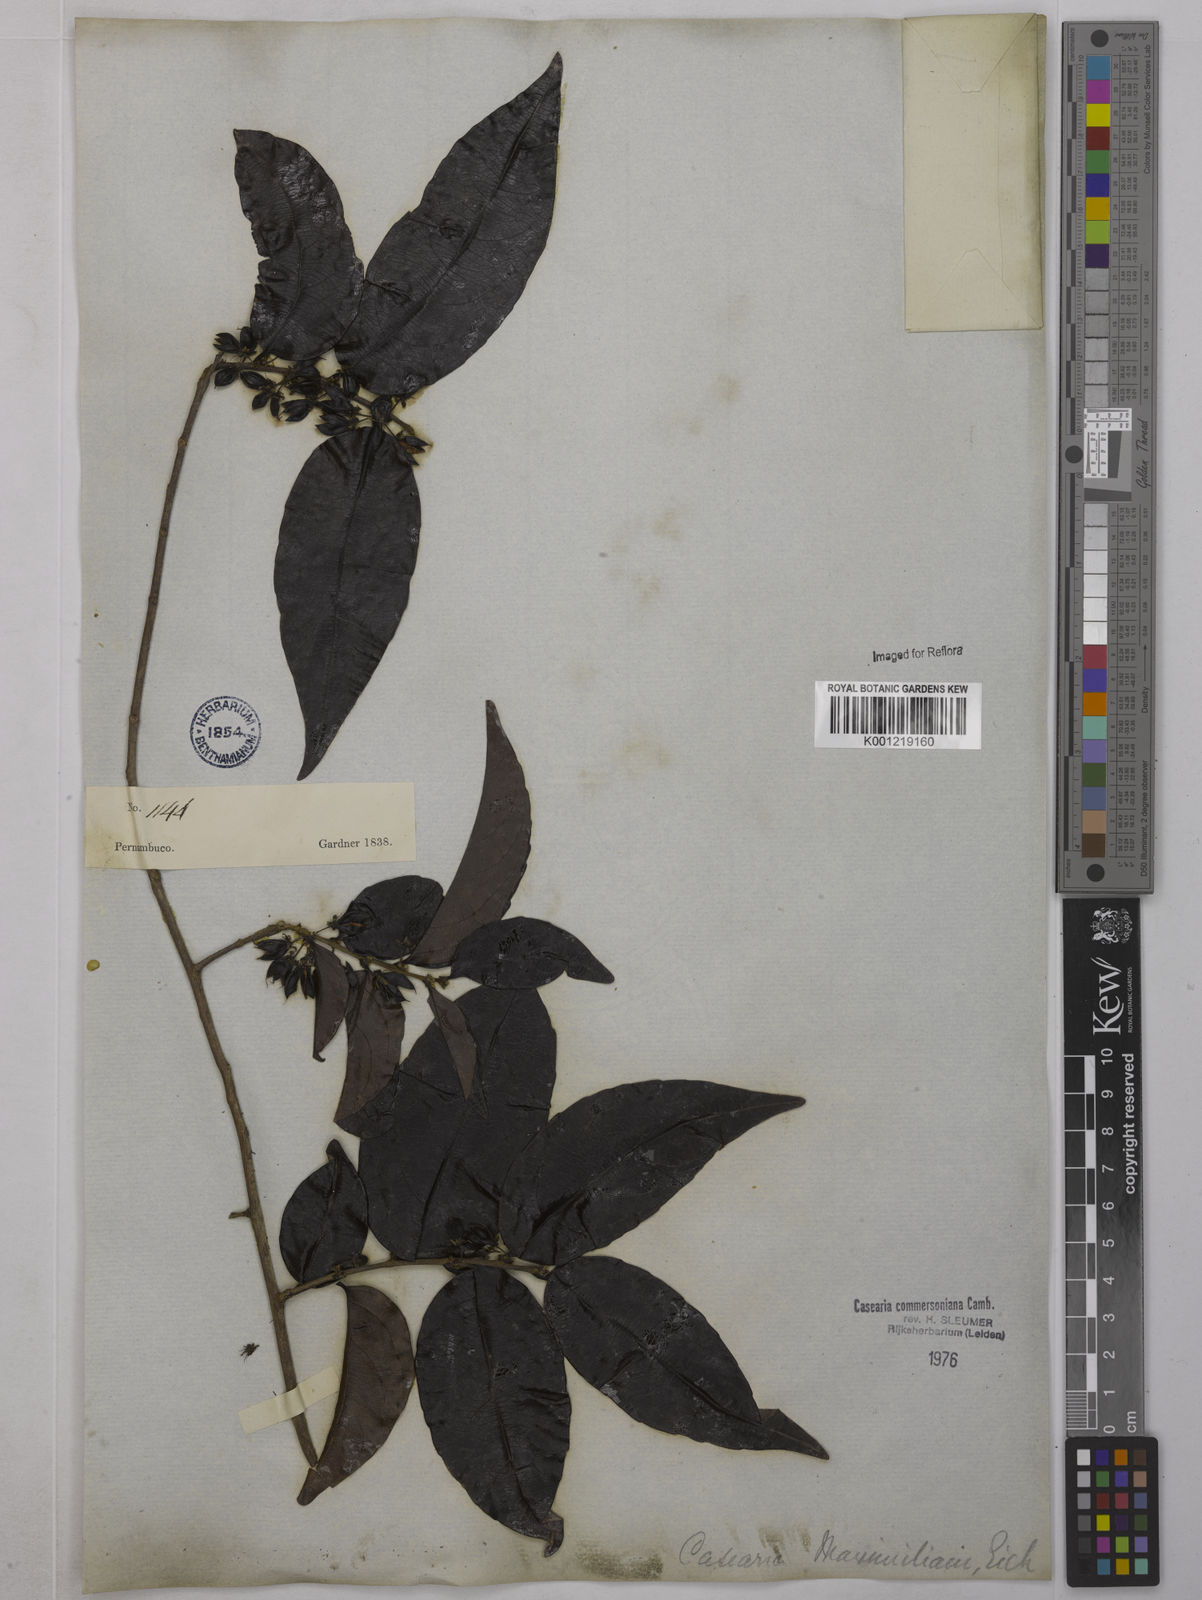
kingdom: Plantae
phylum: Tracheophyta
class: Magnoliopsida
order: Malpighiales
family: Salicaceae
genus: Piparea
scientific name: Piparea dentata
